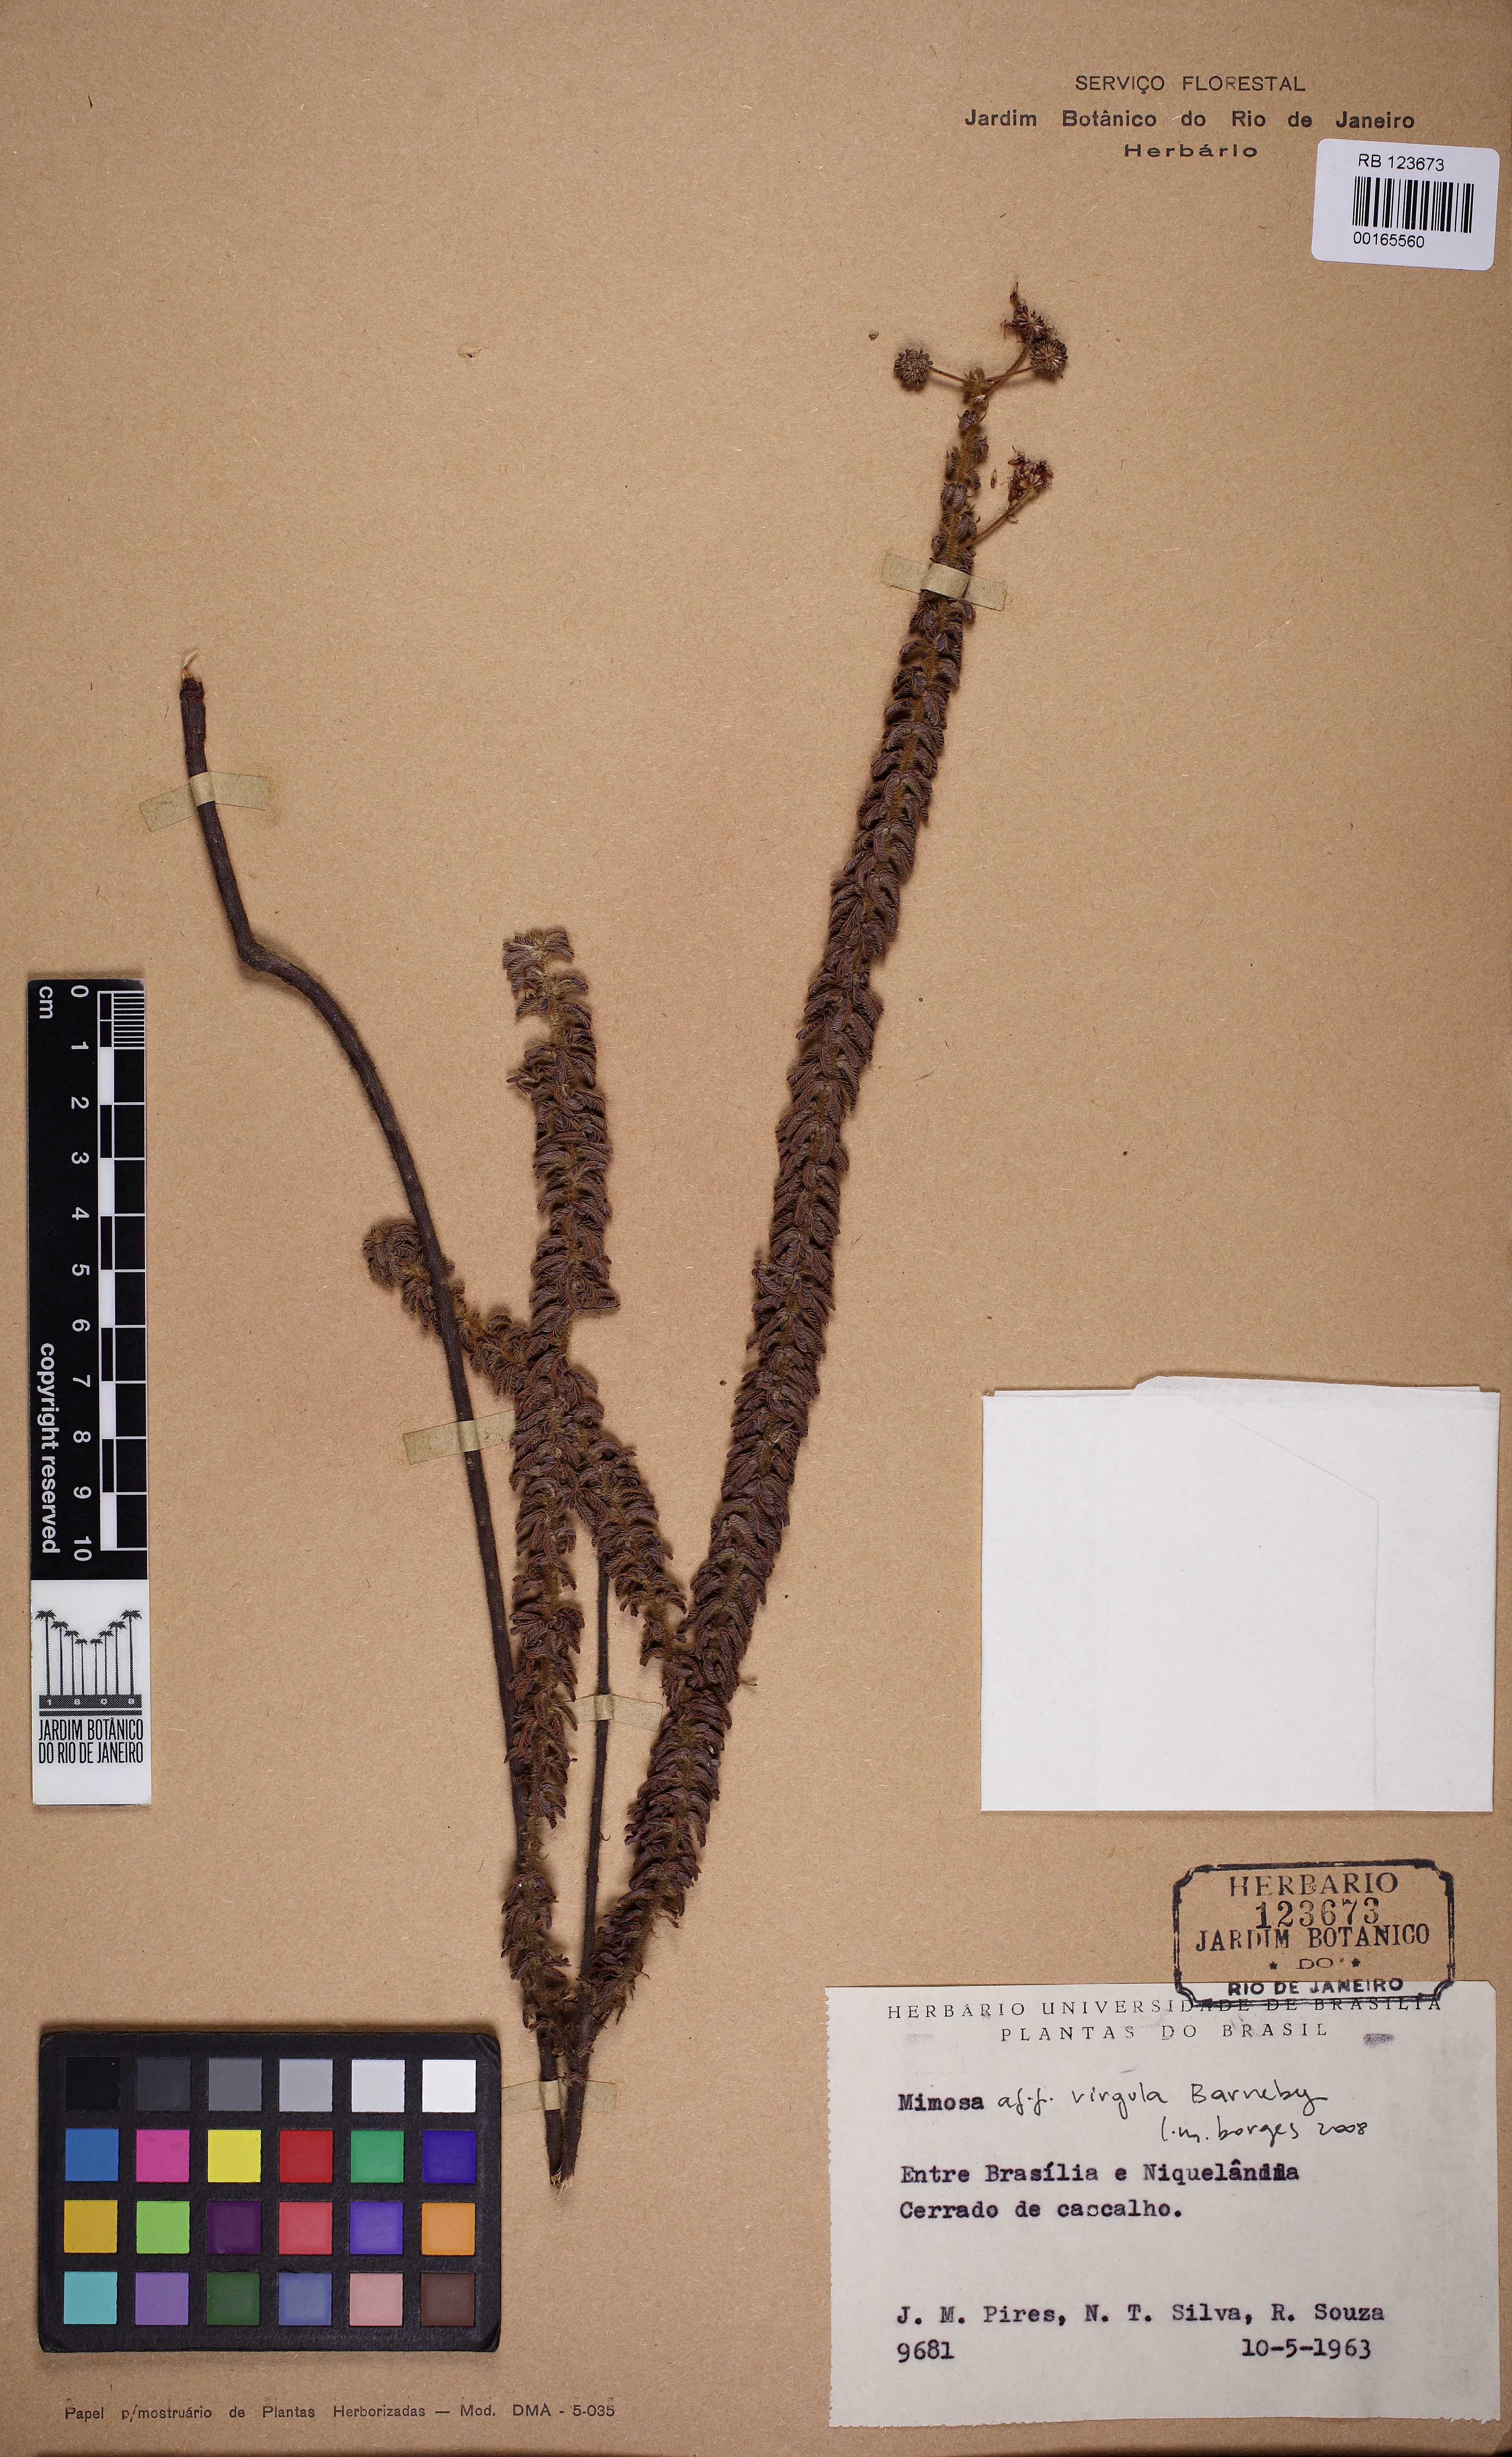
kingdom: Plantae
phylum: Tracheophyta
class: Magnoliopsida
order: Fabales
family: Fabaceae
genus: Mimosa
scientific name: Mimosa virgula
